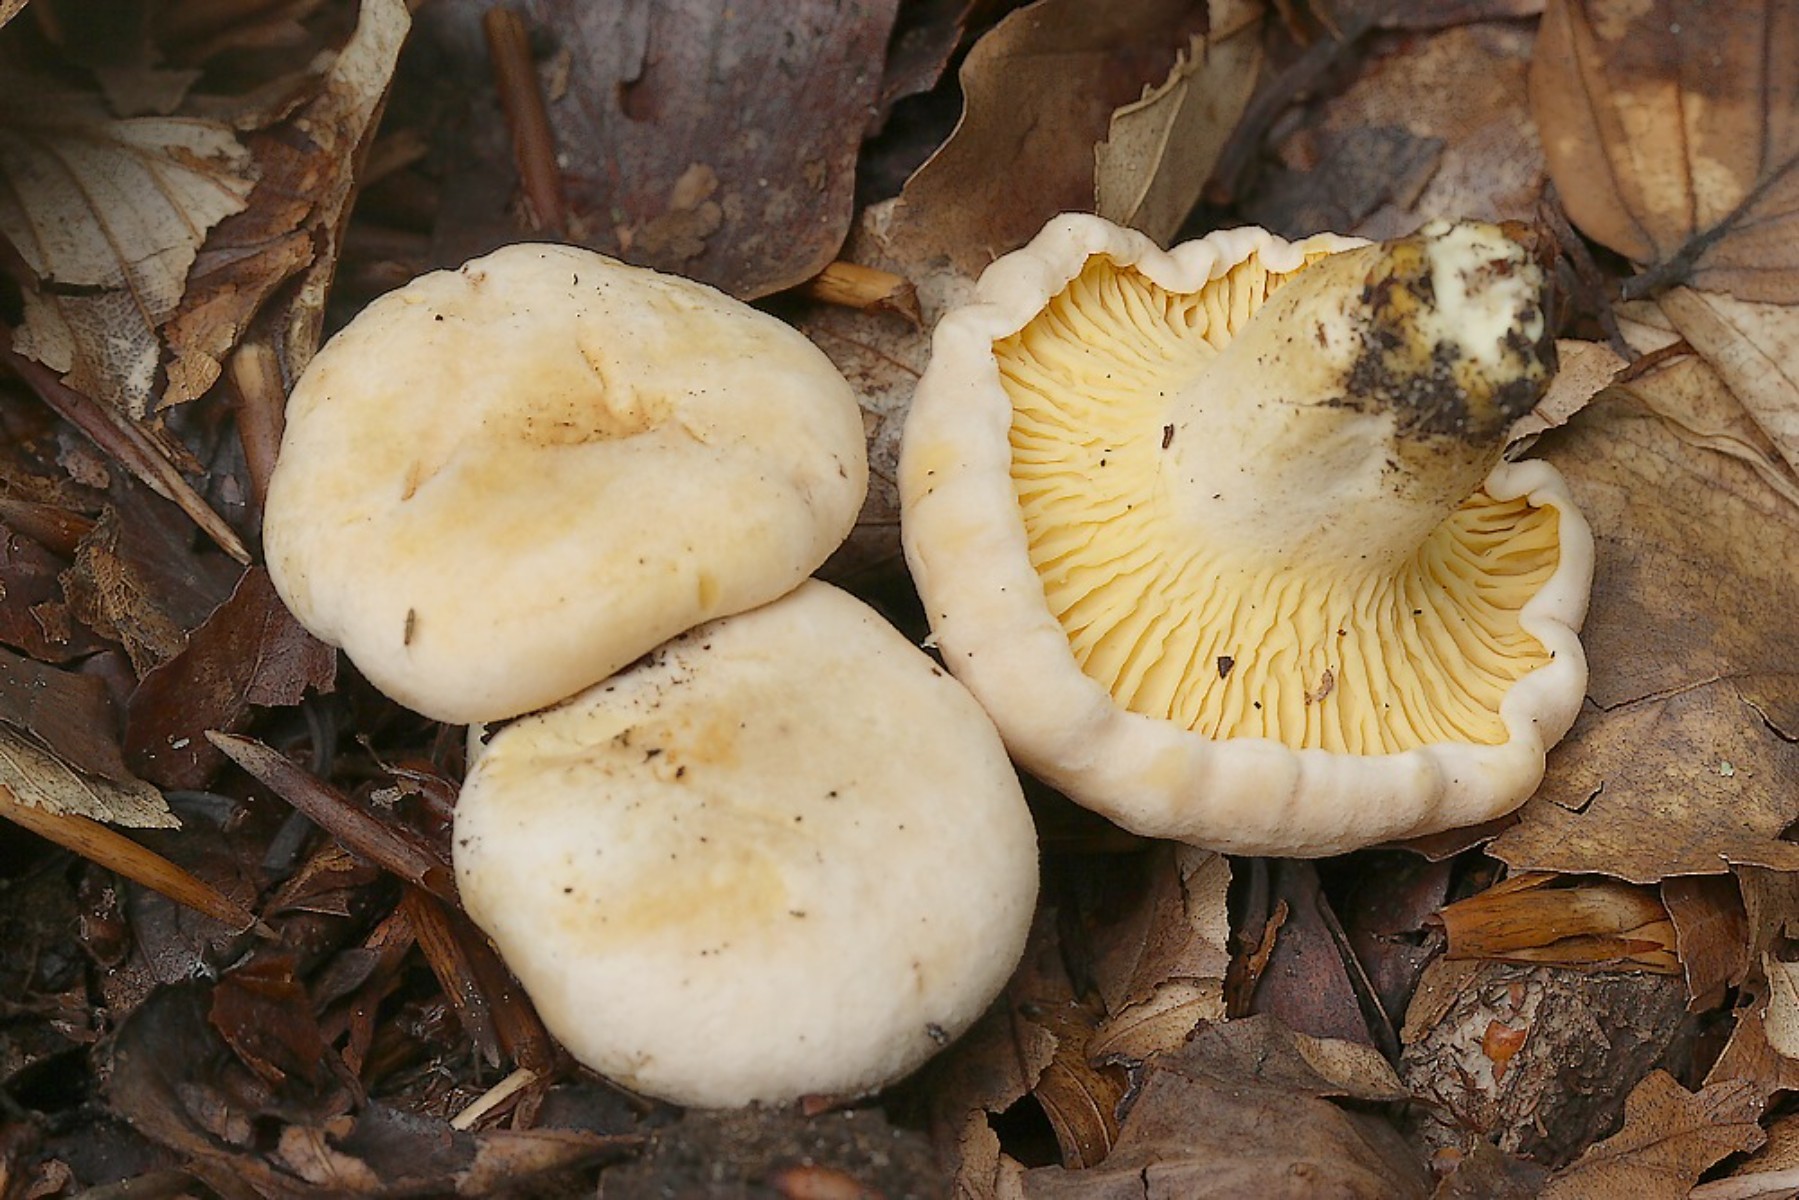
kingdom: Fungi
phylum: Basidiomycota
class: Agaricomycetes
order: Cantharellales
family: Hydnaceae
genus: Cantharellus
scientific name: Cantharellus pallens
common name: bleg kantarel
